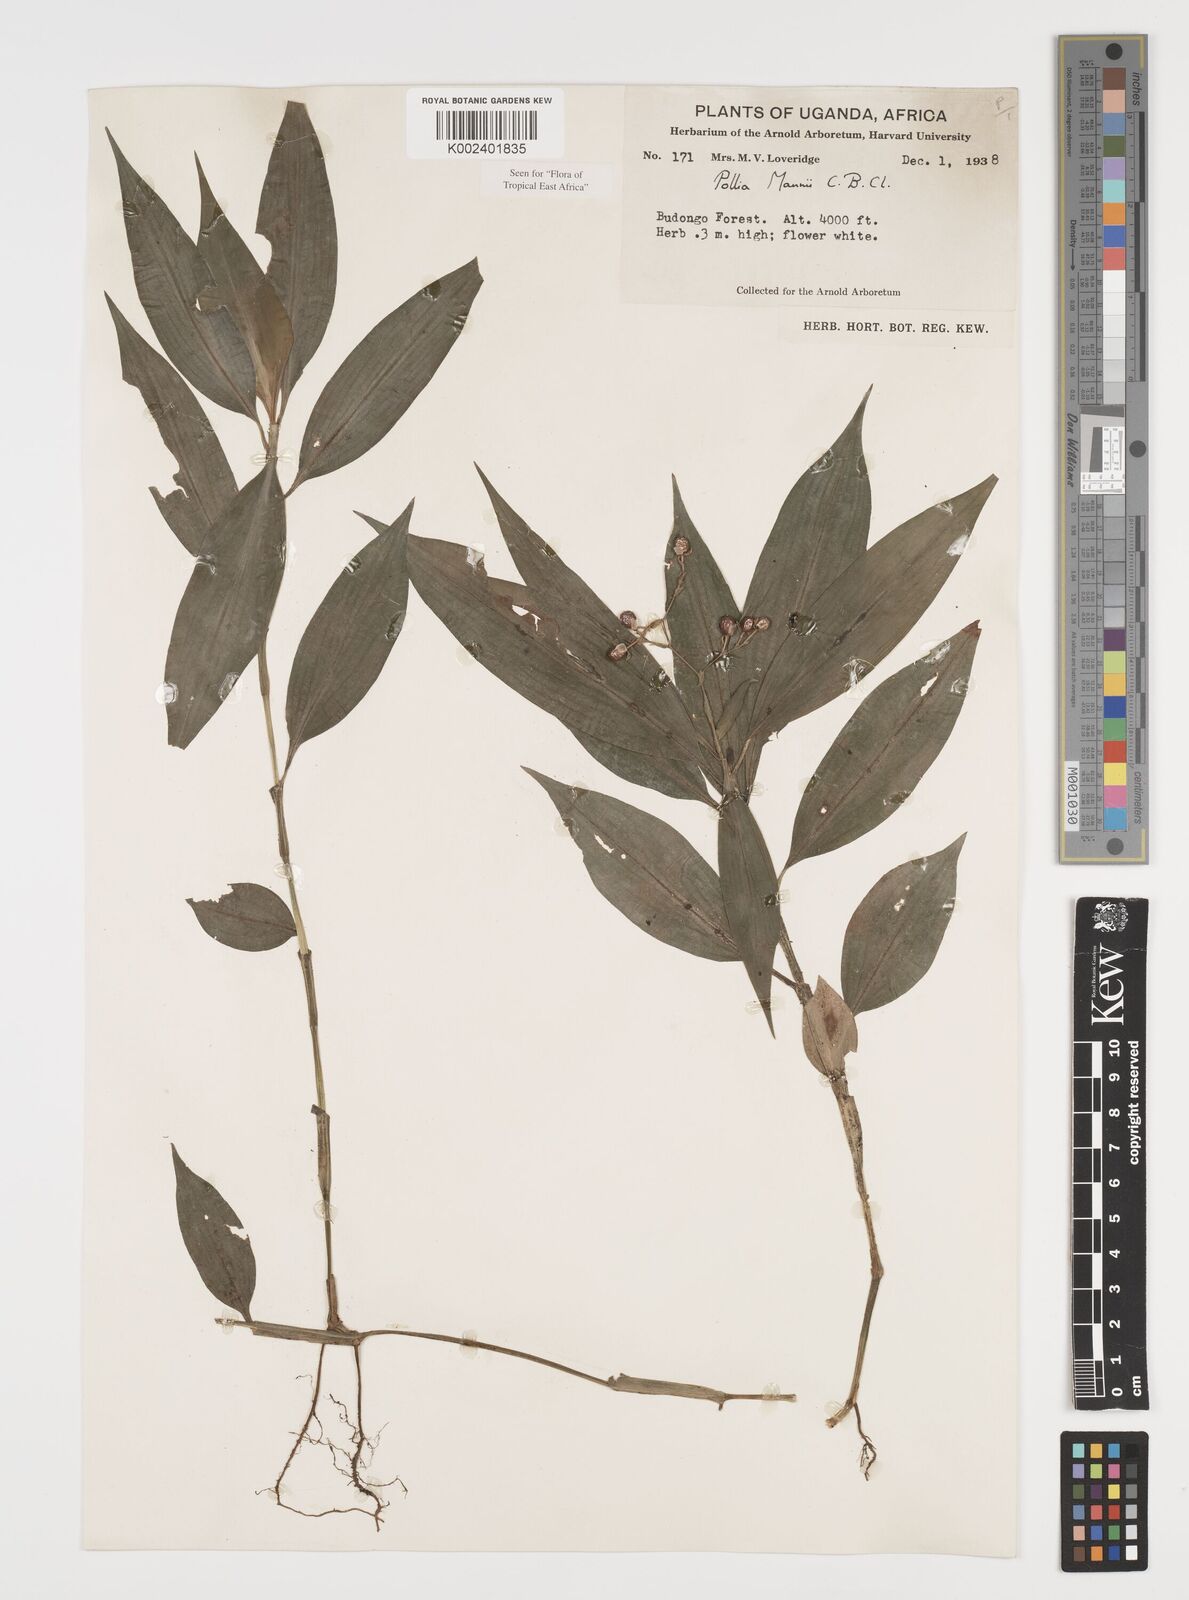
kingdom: Plantae
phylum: Tracheophyta
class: Liliopsida
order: Commelinales
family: Commelinaceae
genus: Pollia
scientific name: Pollia mannii
